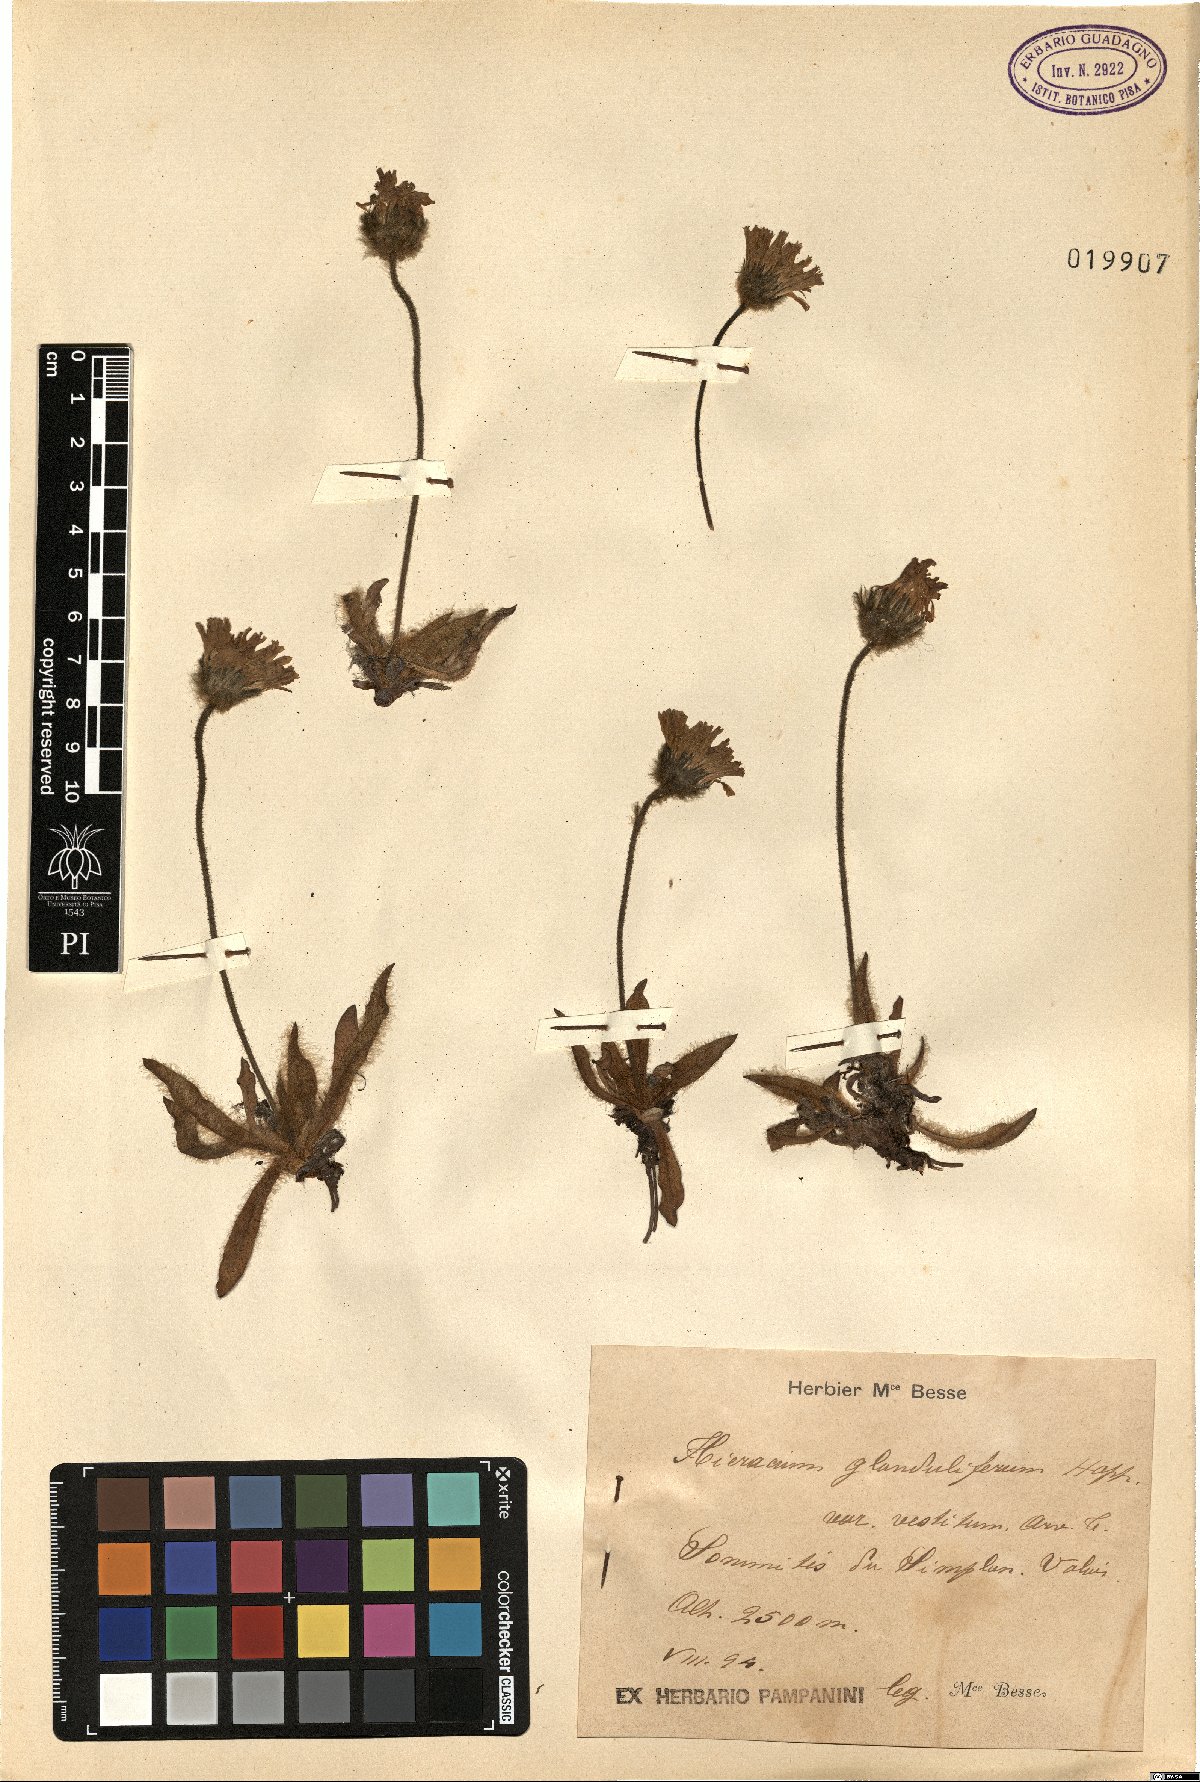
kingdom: Plantae
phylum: Tracheophyta
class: Magnoliopsida
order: Asterales
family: Asteraceae
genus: Hieracium
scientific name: Hieracium piliferum
